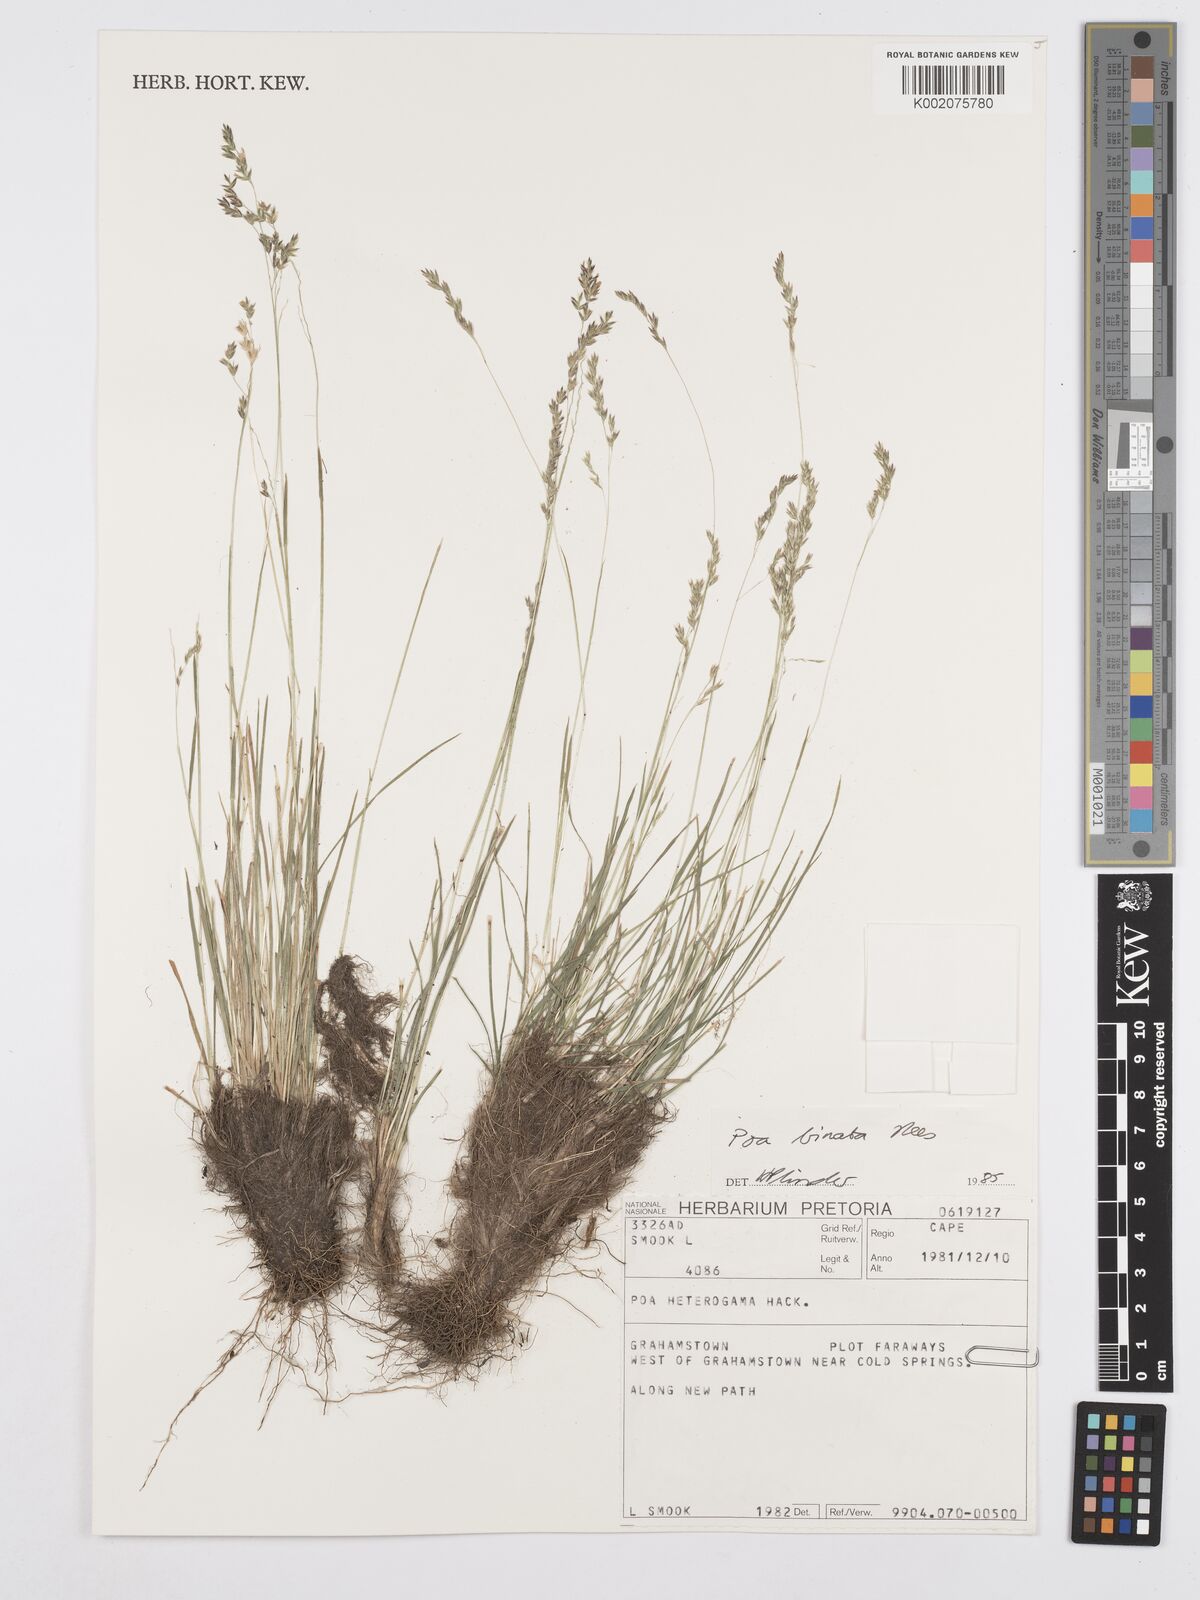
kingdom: Plantae
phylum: Tracheophyta
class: Liliopsida
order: Poales
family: Poaceae
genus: Poa
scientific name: Poa binata
